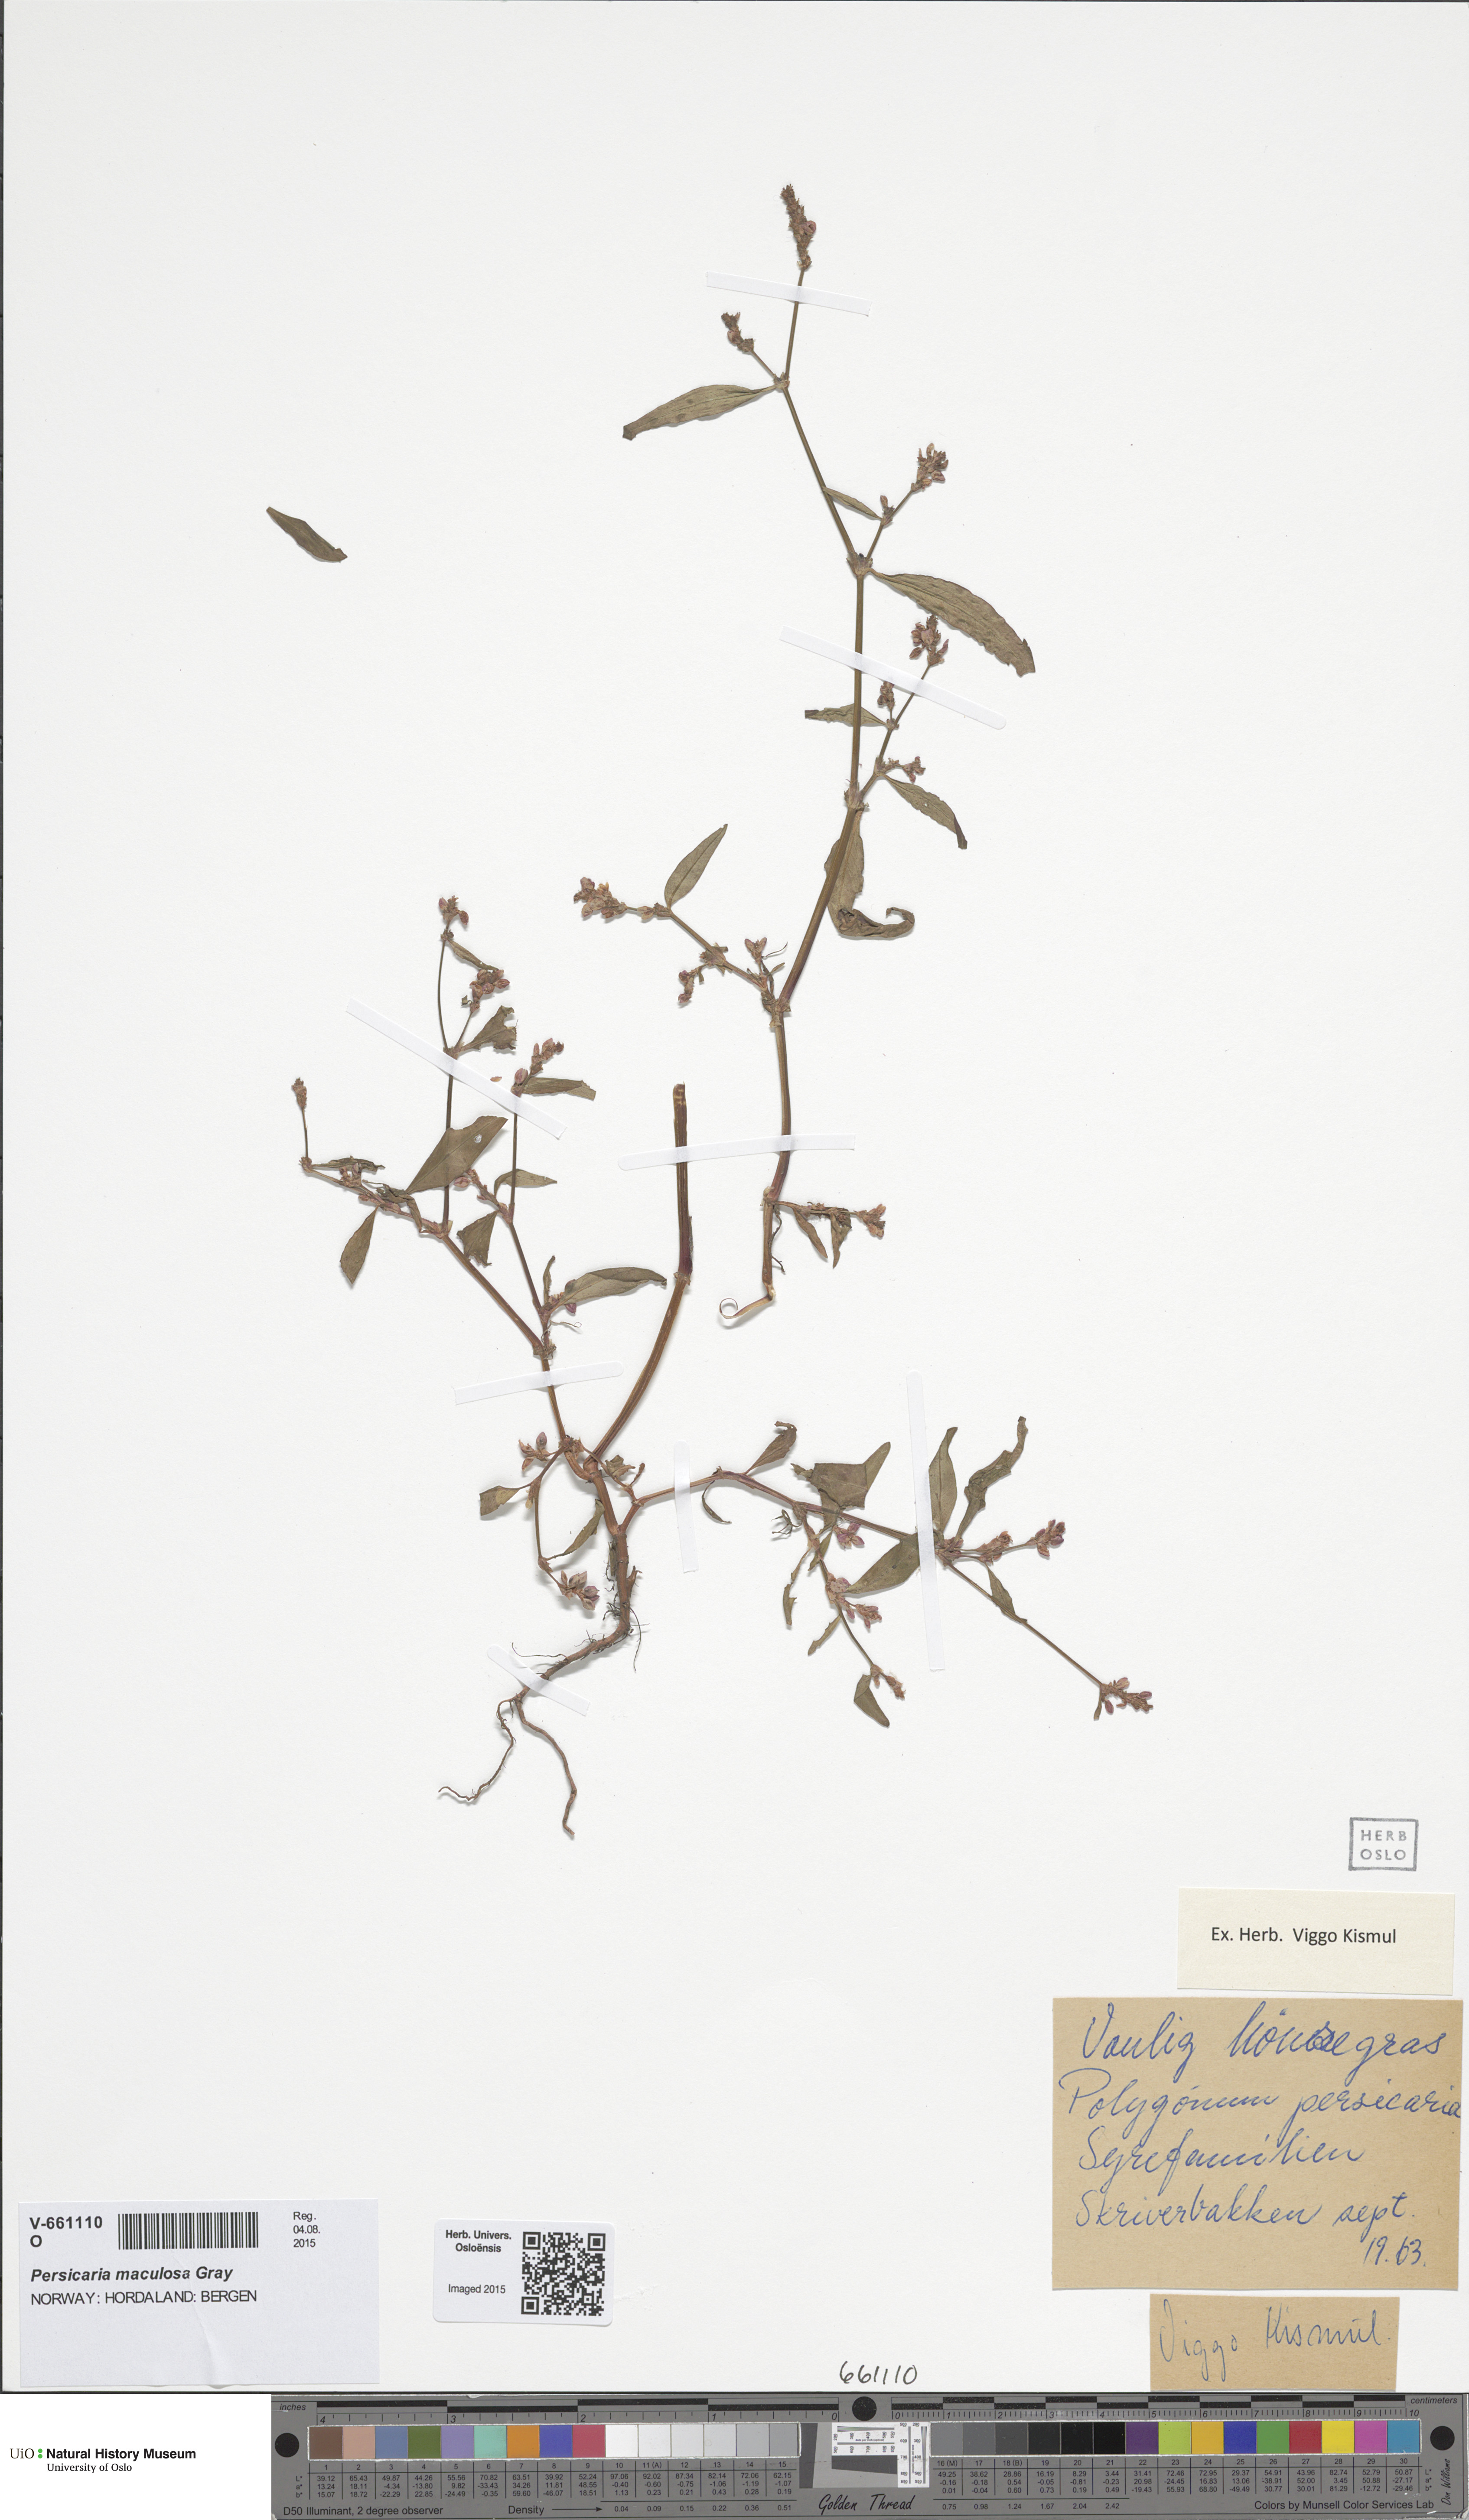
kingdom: Plantae
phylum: Tracheophyta
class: Magnoliopsida
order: Caryophyllales
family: Polygonaceae
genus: Persicaria
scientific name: Persicaria maculosa
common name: Redshank
